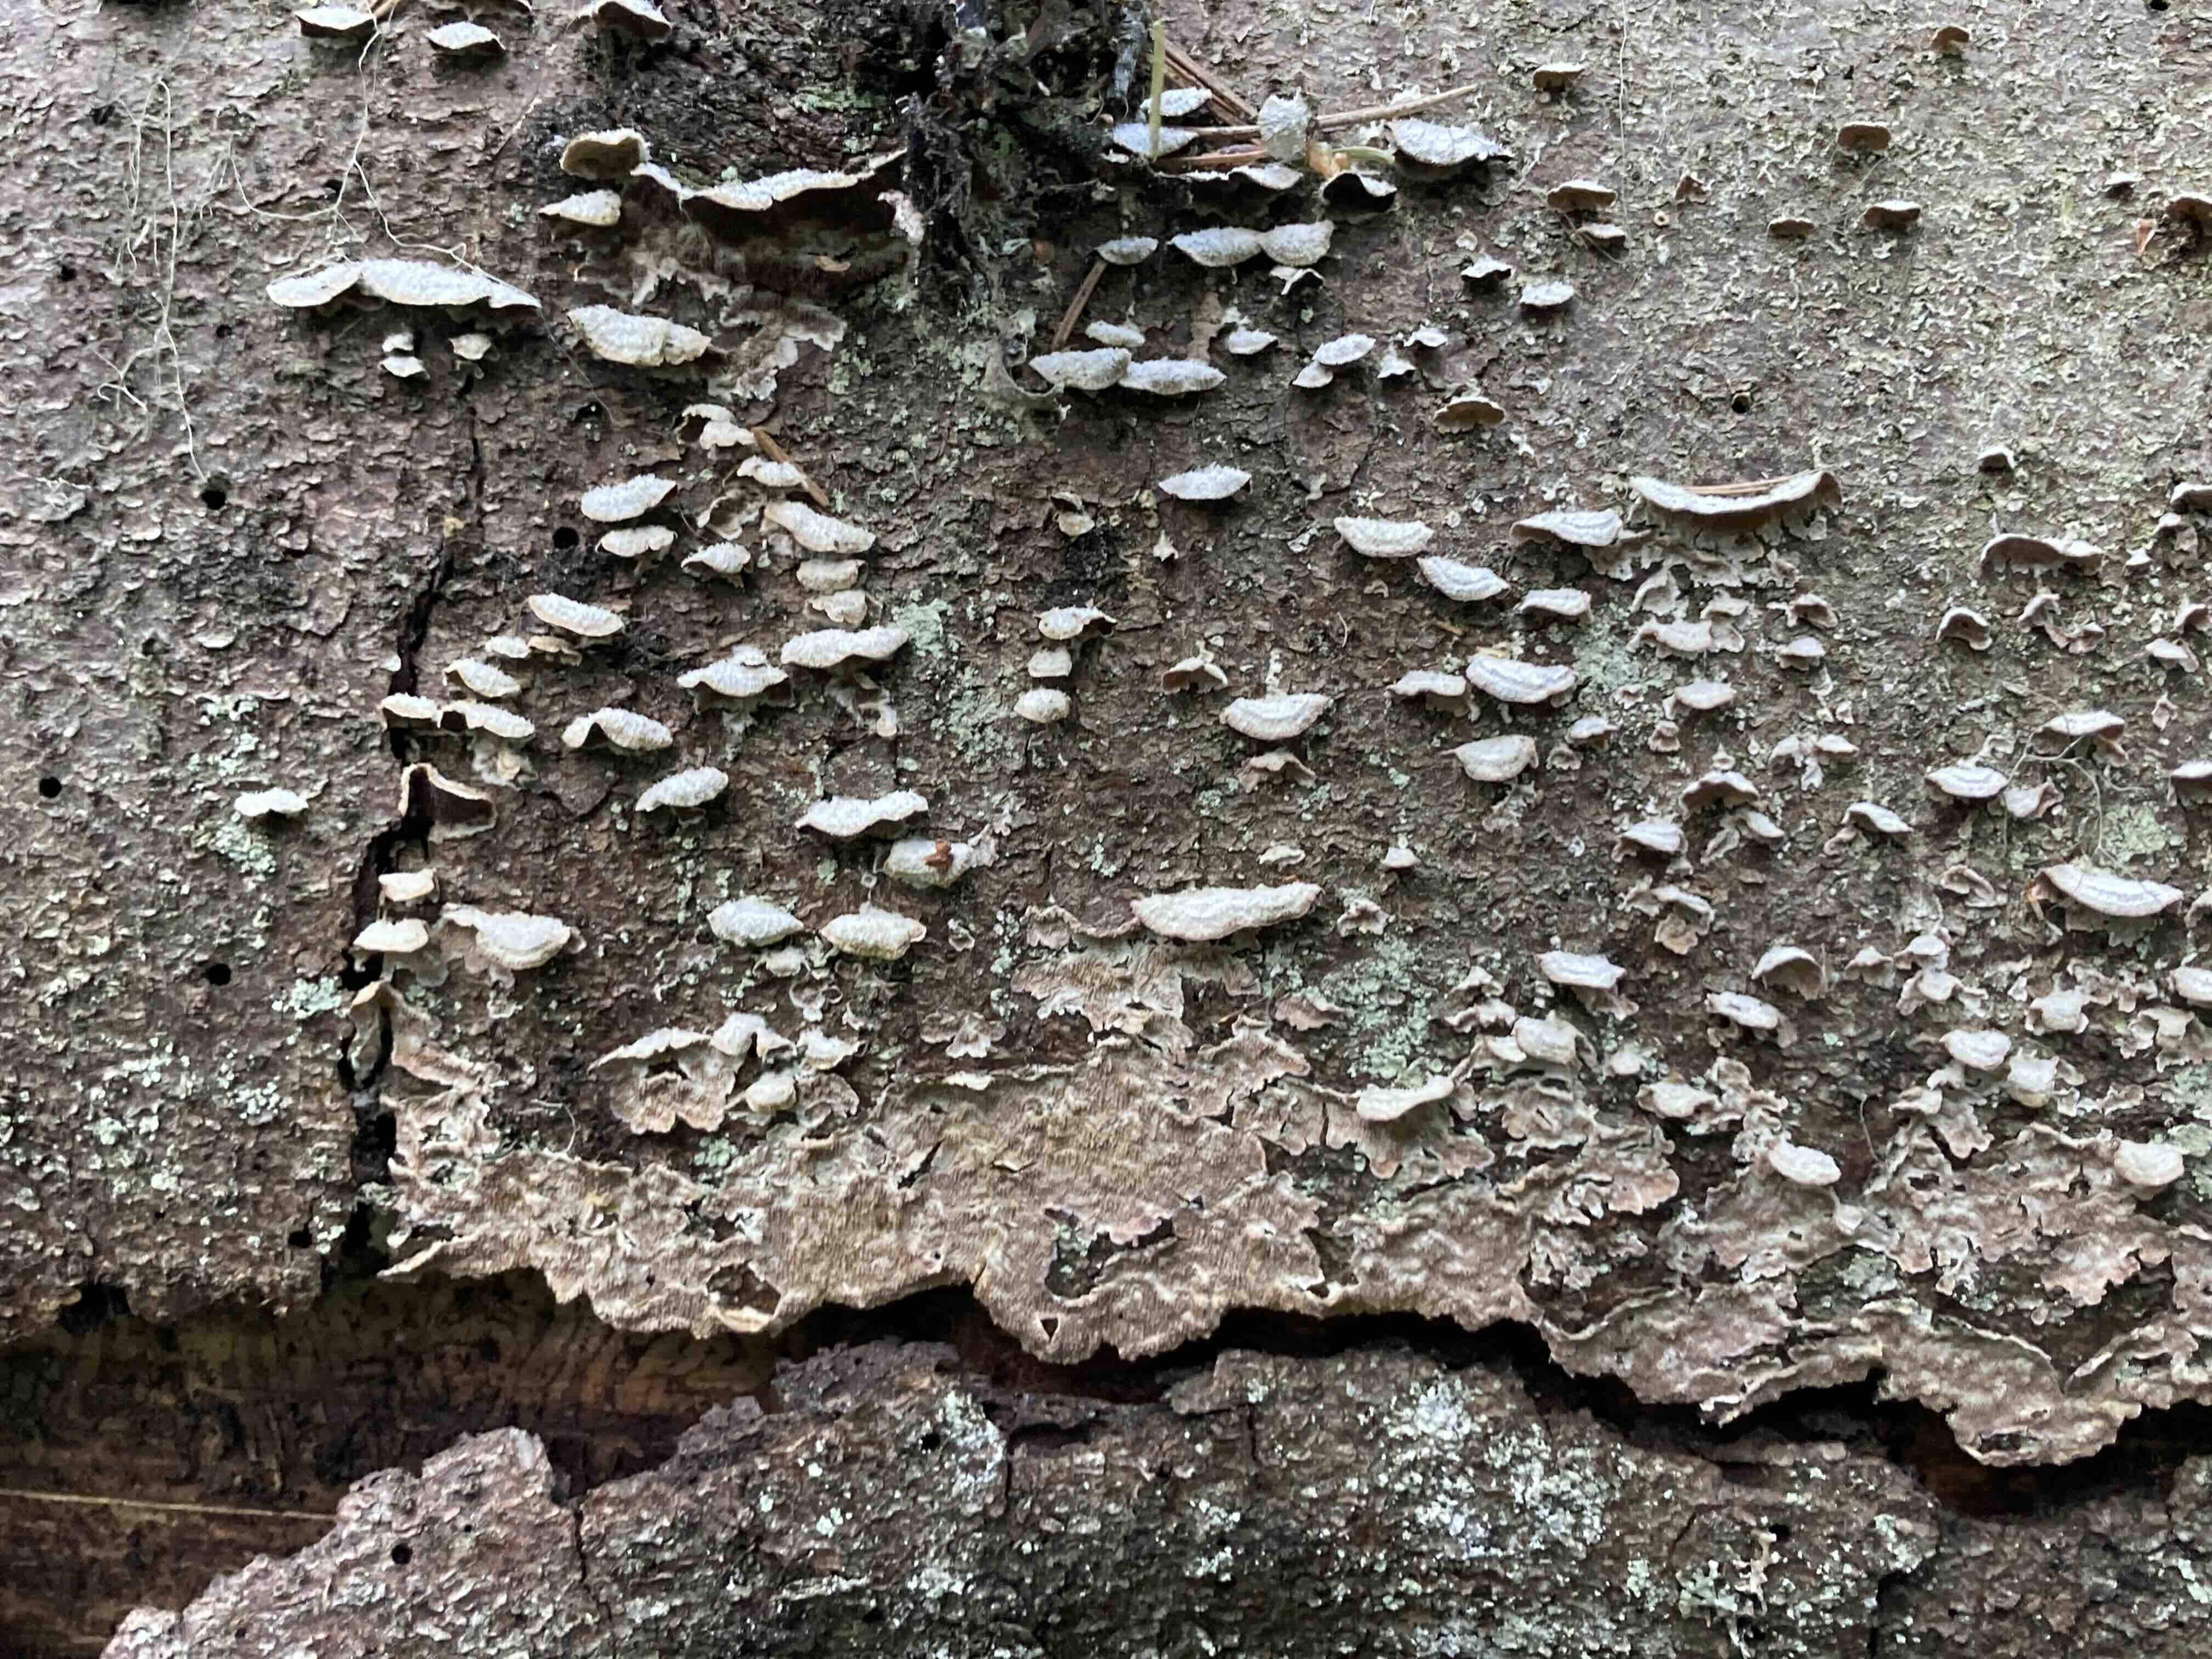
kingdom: Fungi
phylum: Basidiomycota
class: Agaricomycetes
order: Hymenochaetales
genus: Trichaptum
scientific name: Trichaptum abietinum
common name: almindelig violporesvamp
